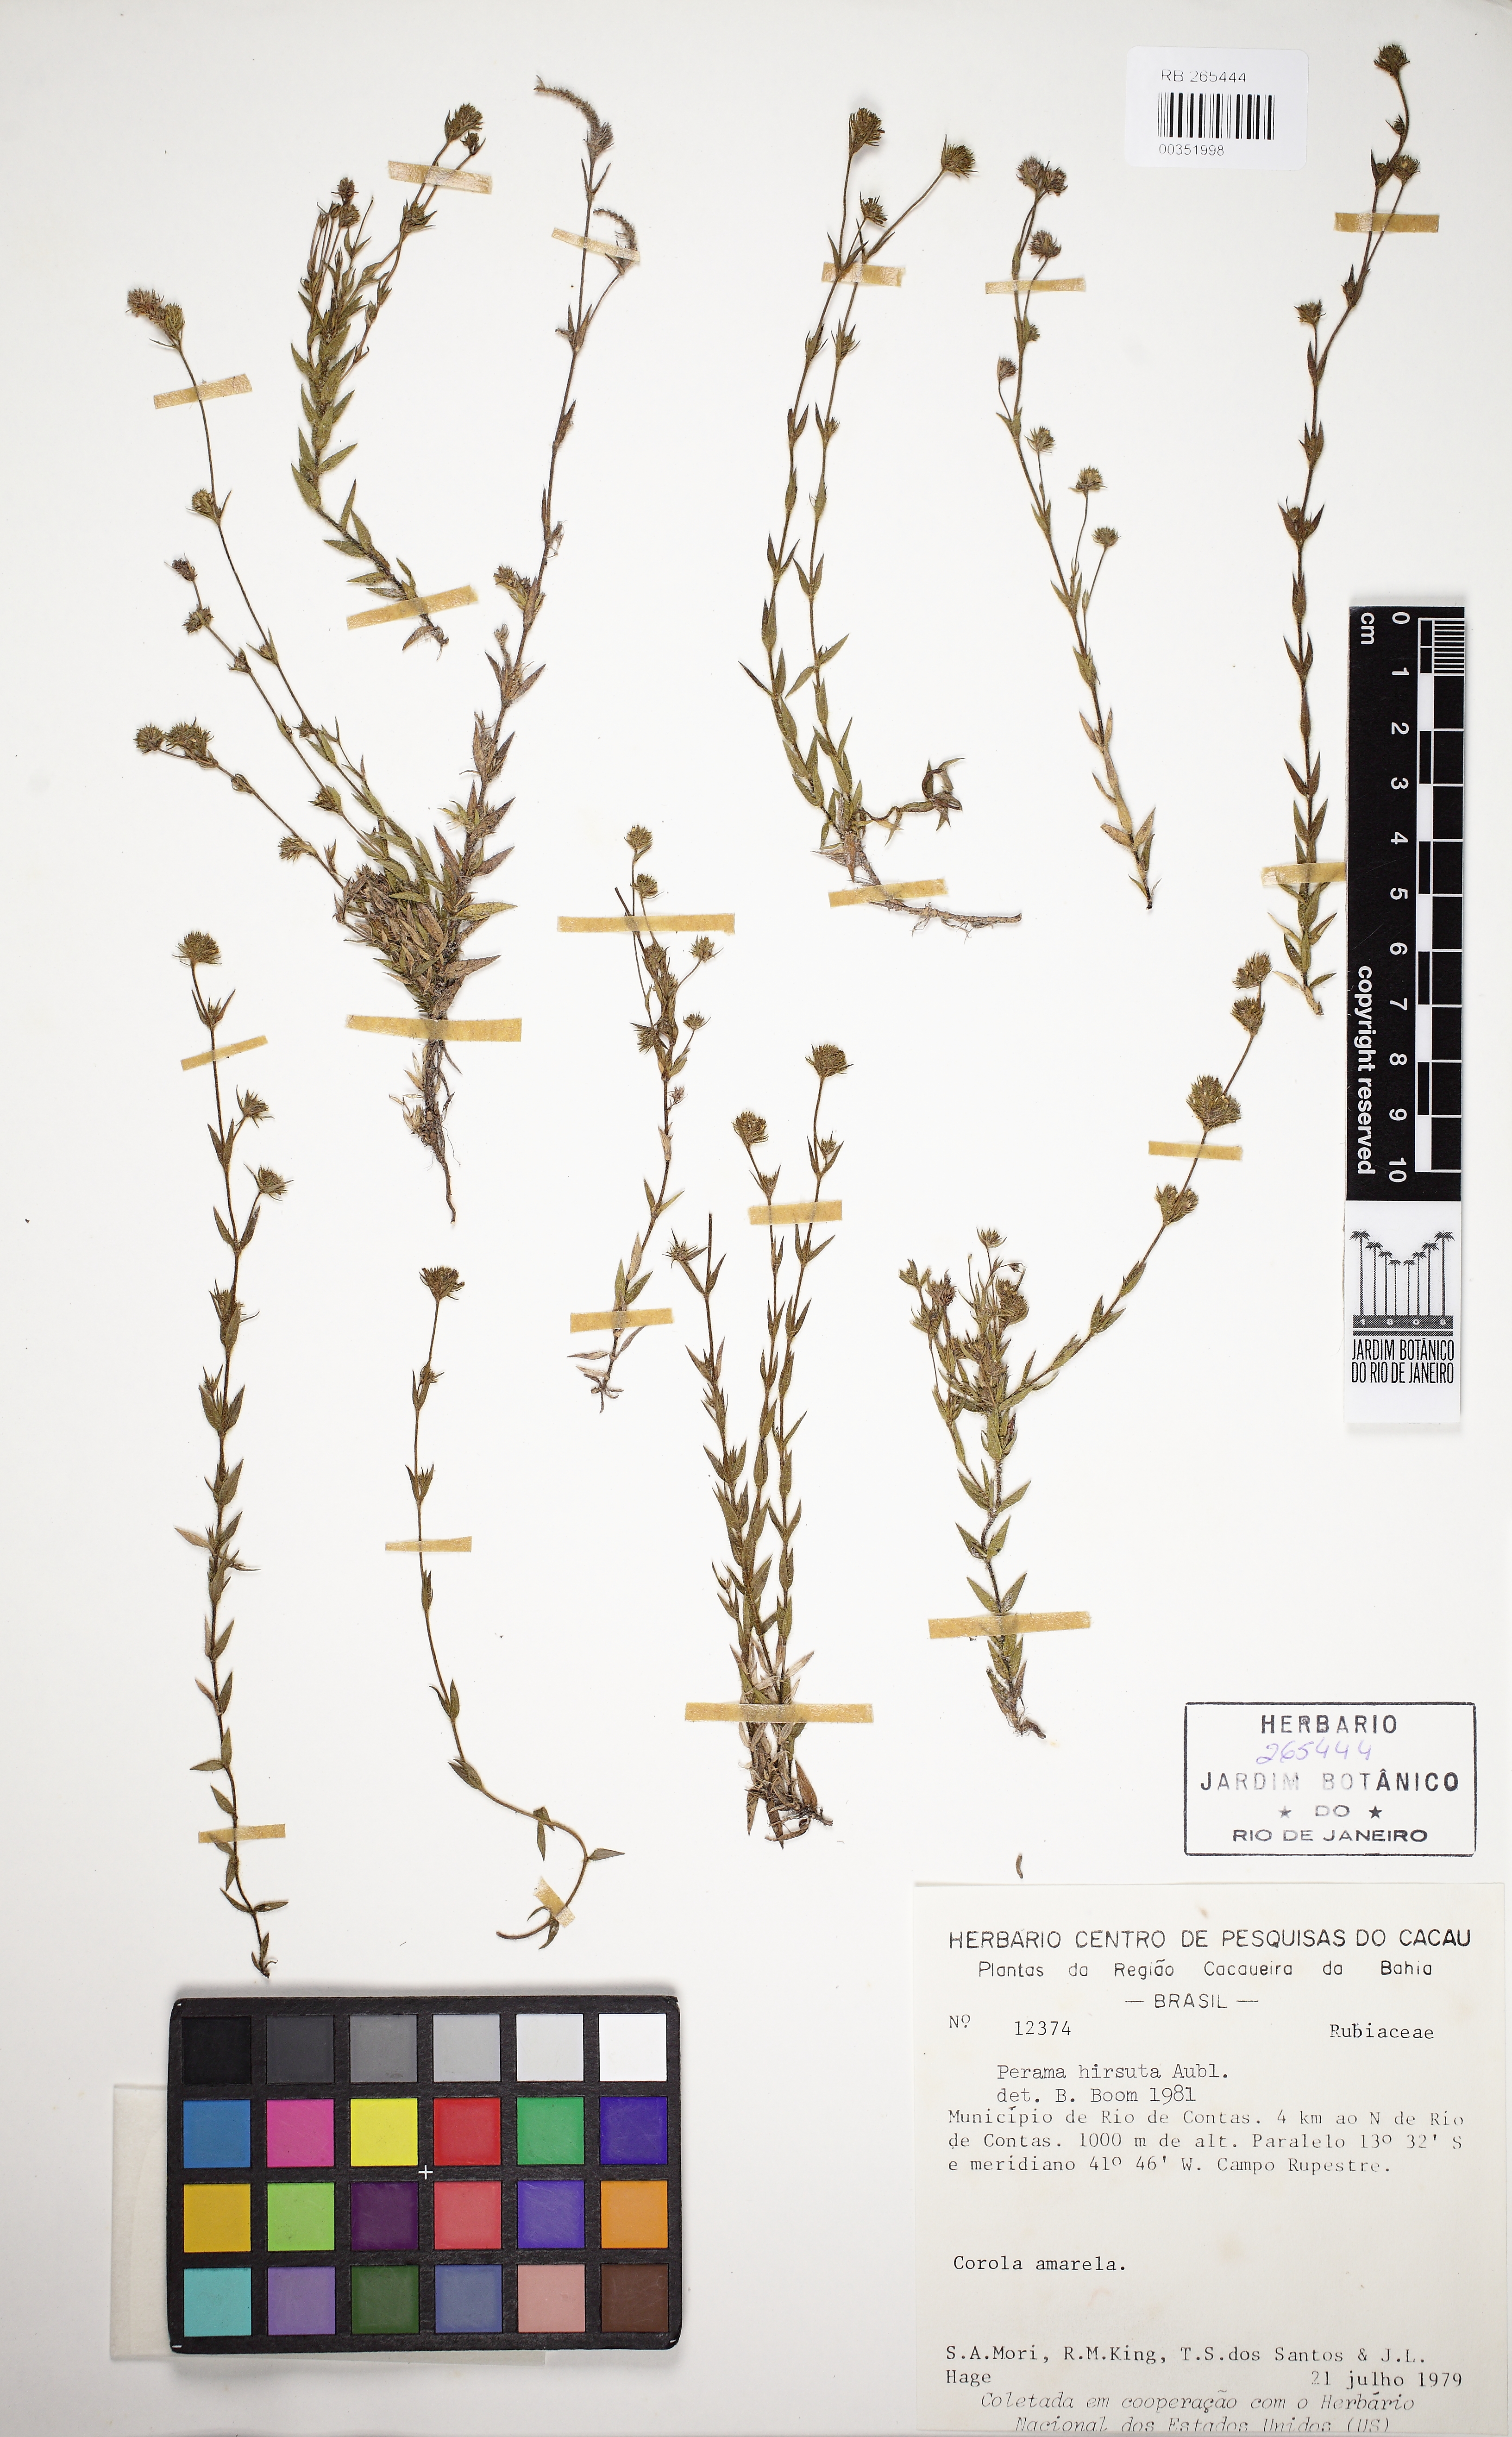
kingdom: Plantae
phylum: Tracheophyta
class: Magnoliopsida
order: Gentianales
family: Rubiaceae
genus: Perama
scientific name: Perama hirsuta
